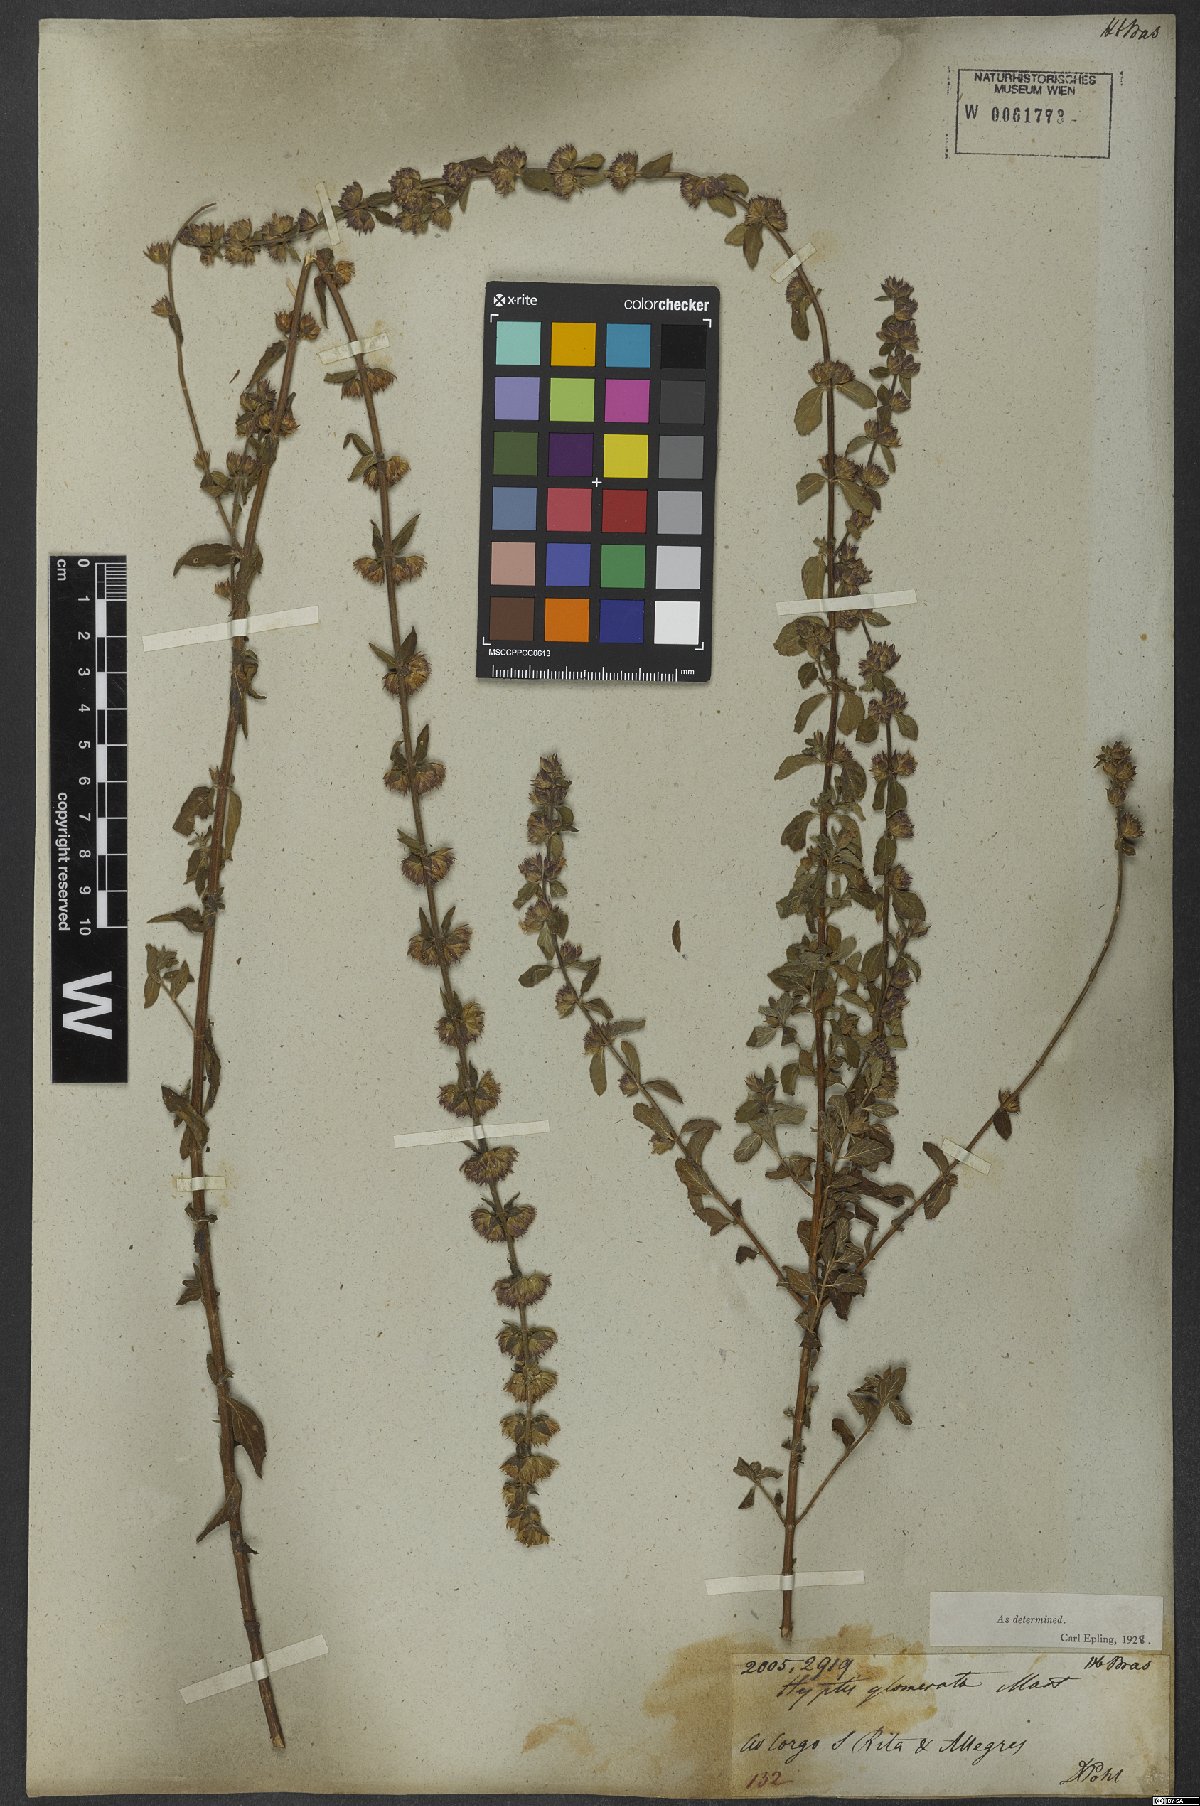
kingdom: Plantae
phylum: Tracheophyta
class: Magnoliopsida
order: Lamiales
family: Lamiaceae
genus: Oocephalus
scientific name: Oocephalus oppositiflorus
